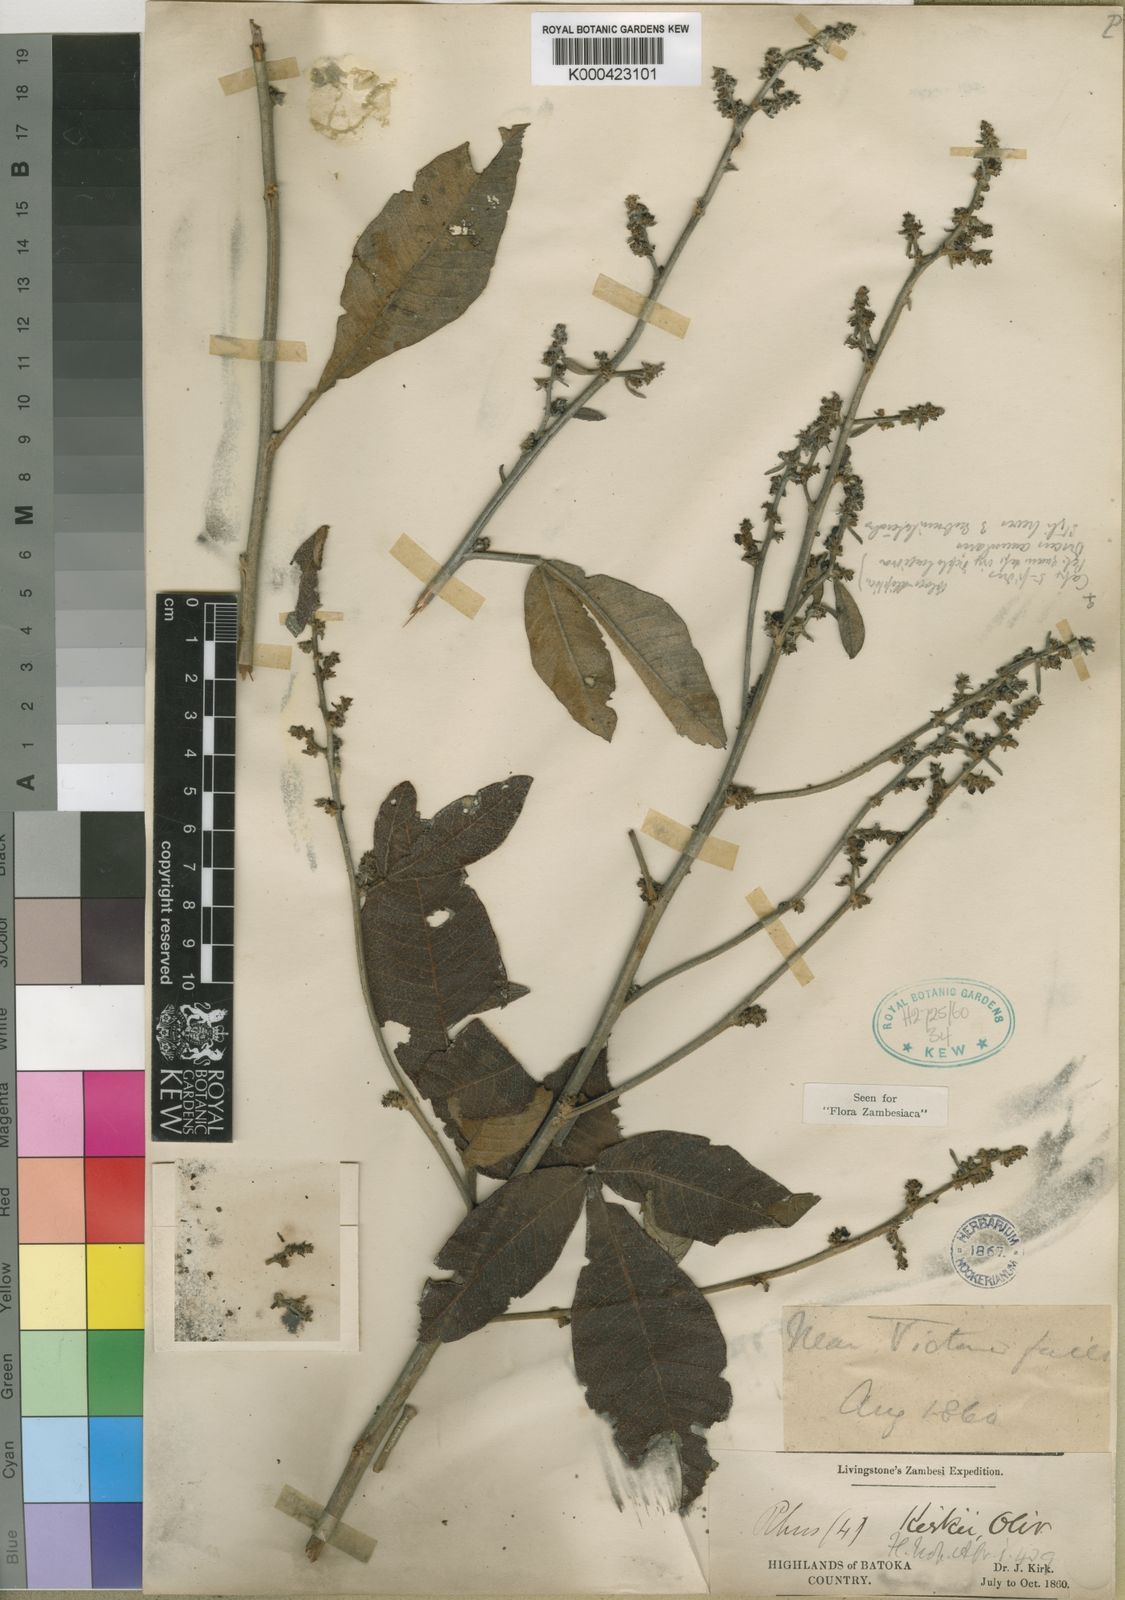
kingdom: Plantae
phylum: Tracheophyta
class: Magnoliopsida
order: Sapindales
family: Anacardiaceae
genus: Searsia
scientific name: Searsia kirkii
